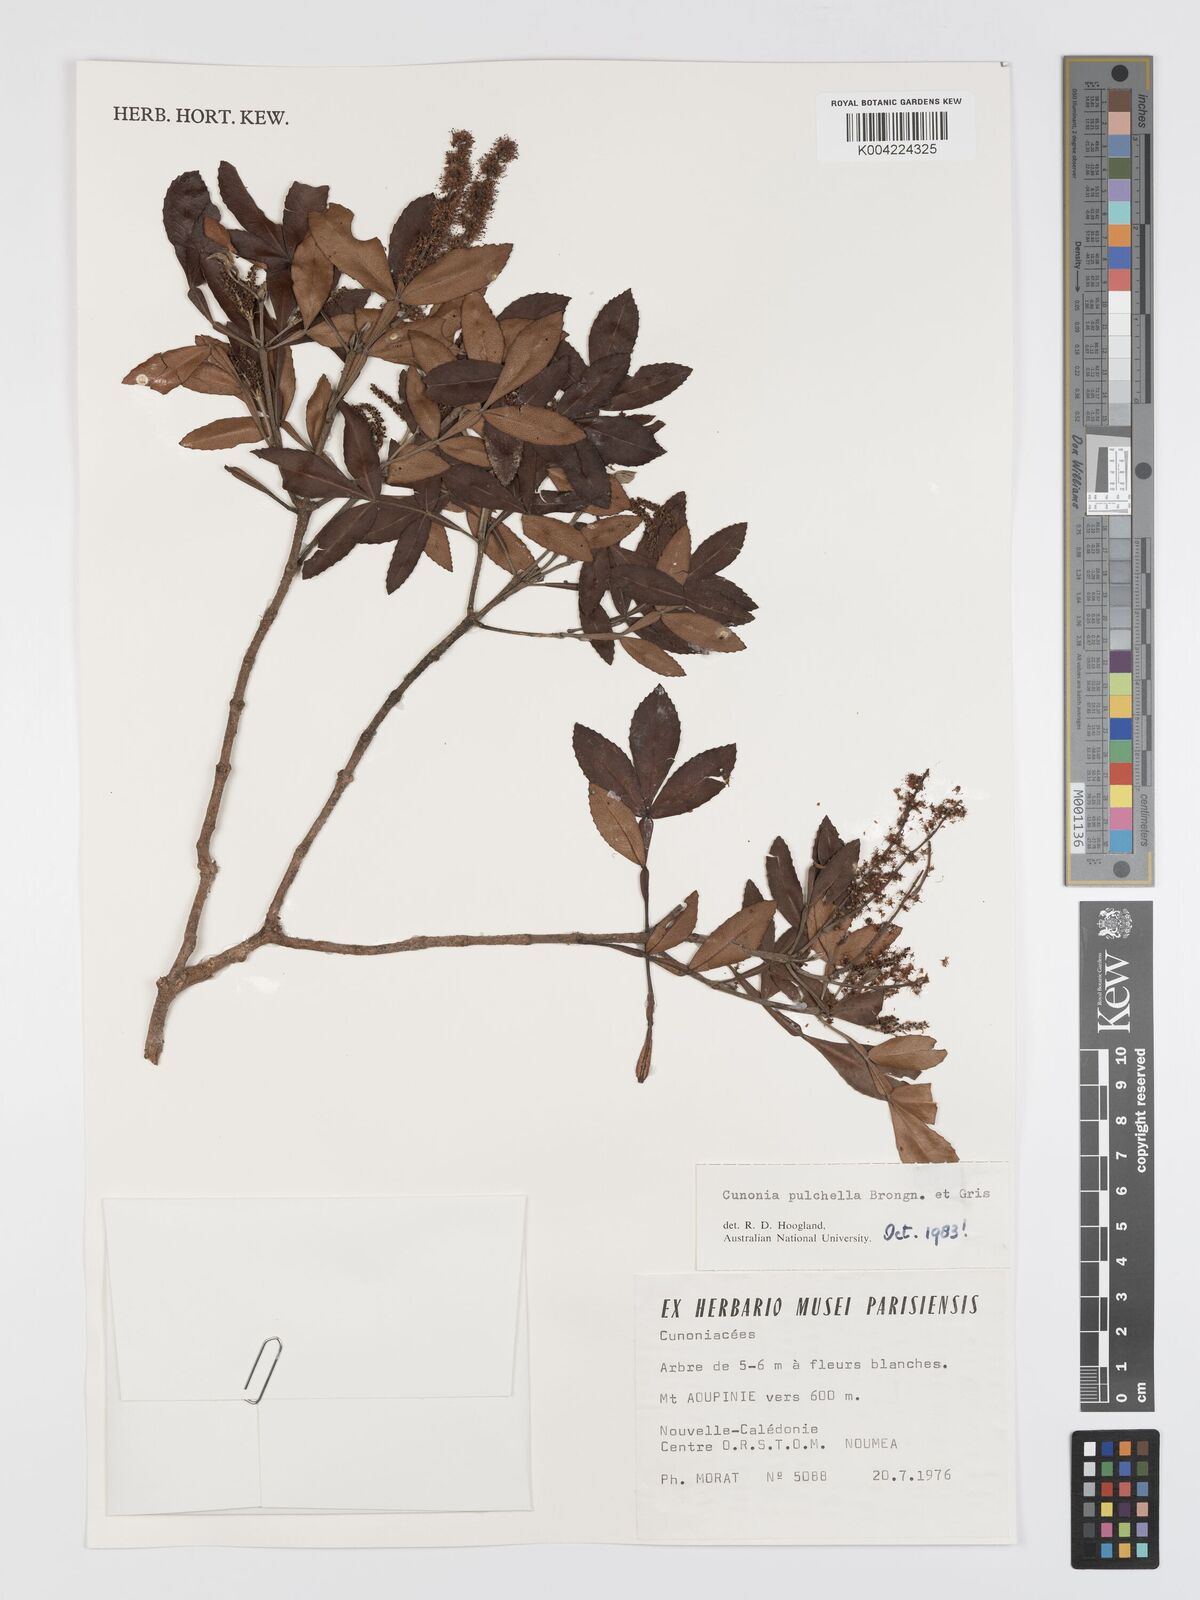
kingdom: Plantae
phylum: Tracheophyta
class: Magnoliopsida
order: Oxalidales
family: Cunoniaceae
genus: Cunonia
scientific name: Cunonia pulchella
